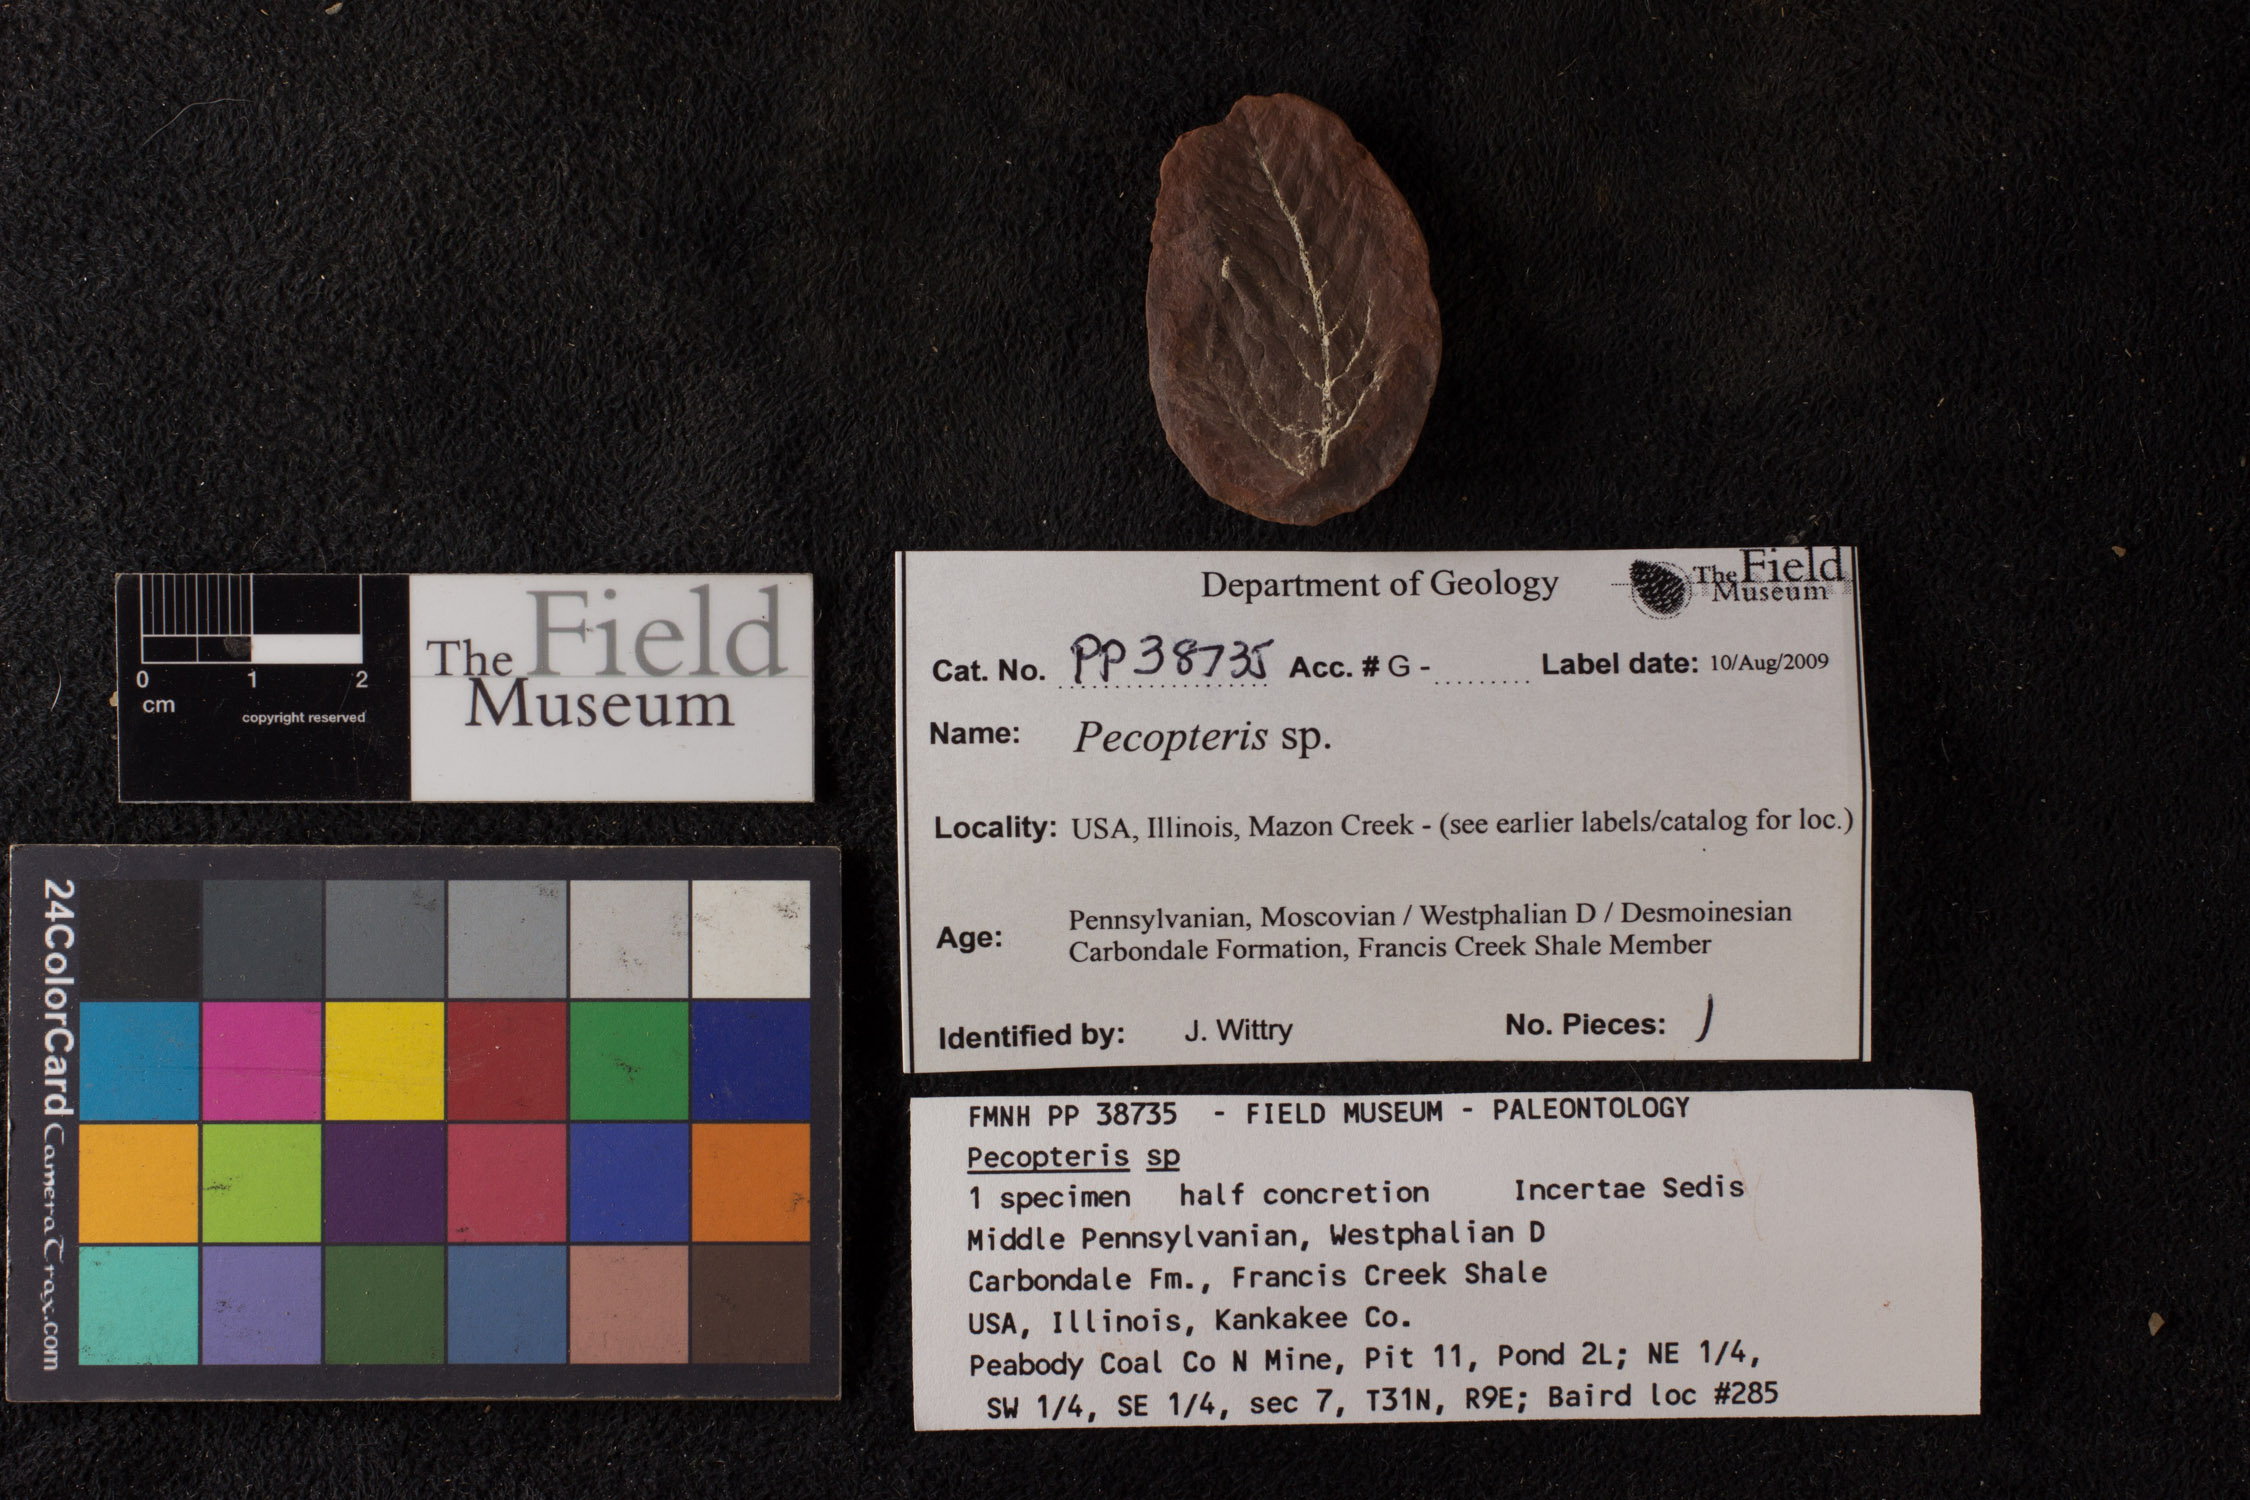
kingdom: Plantae
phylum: Tracheophyta
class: Polypodiopsida
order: Marattiales
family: Asterothecaceae
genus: Pecopteris
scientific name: Pecopteris
